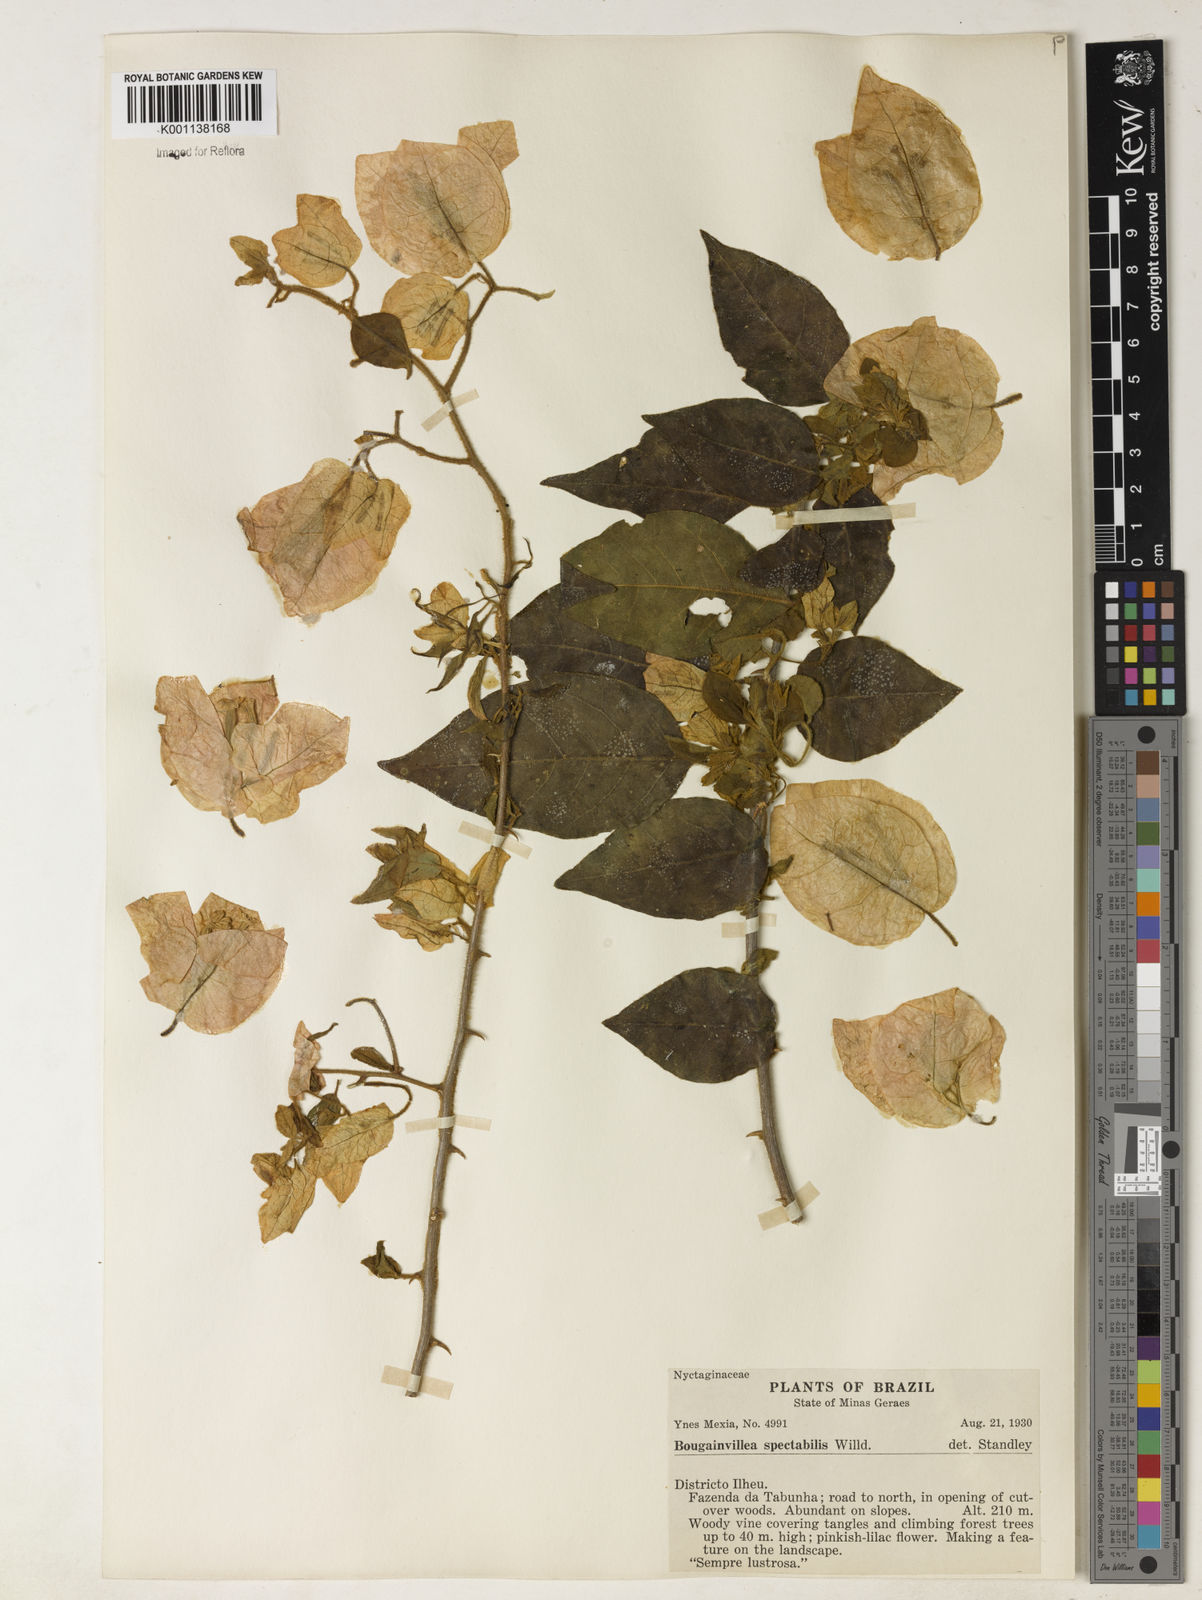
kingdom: Plantae
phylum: Tracheophyta
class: Magnoliopsida
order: Caryophyllales
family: Nyctaginaceae
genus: Bougainvillea
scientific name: Bougainvillea spectabilis
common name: Great bougainvillea
